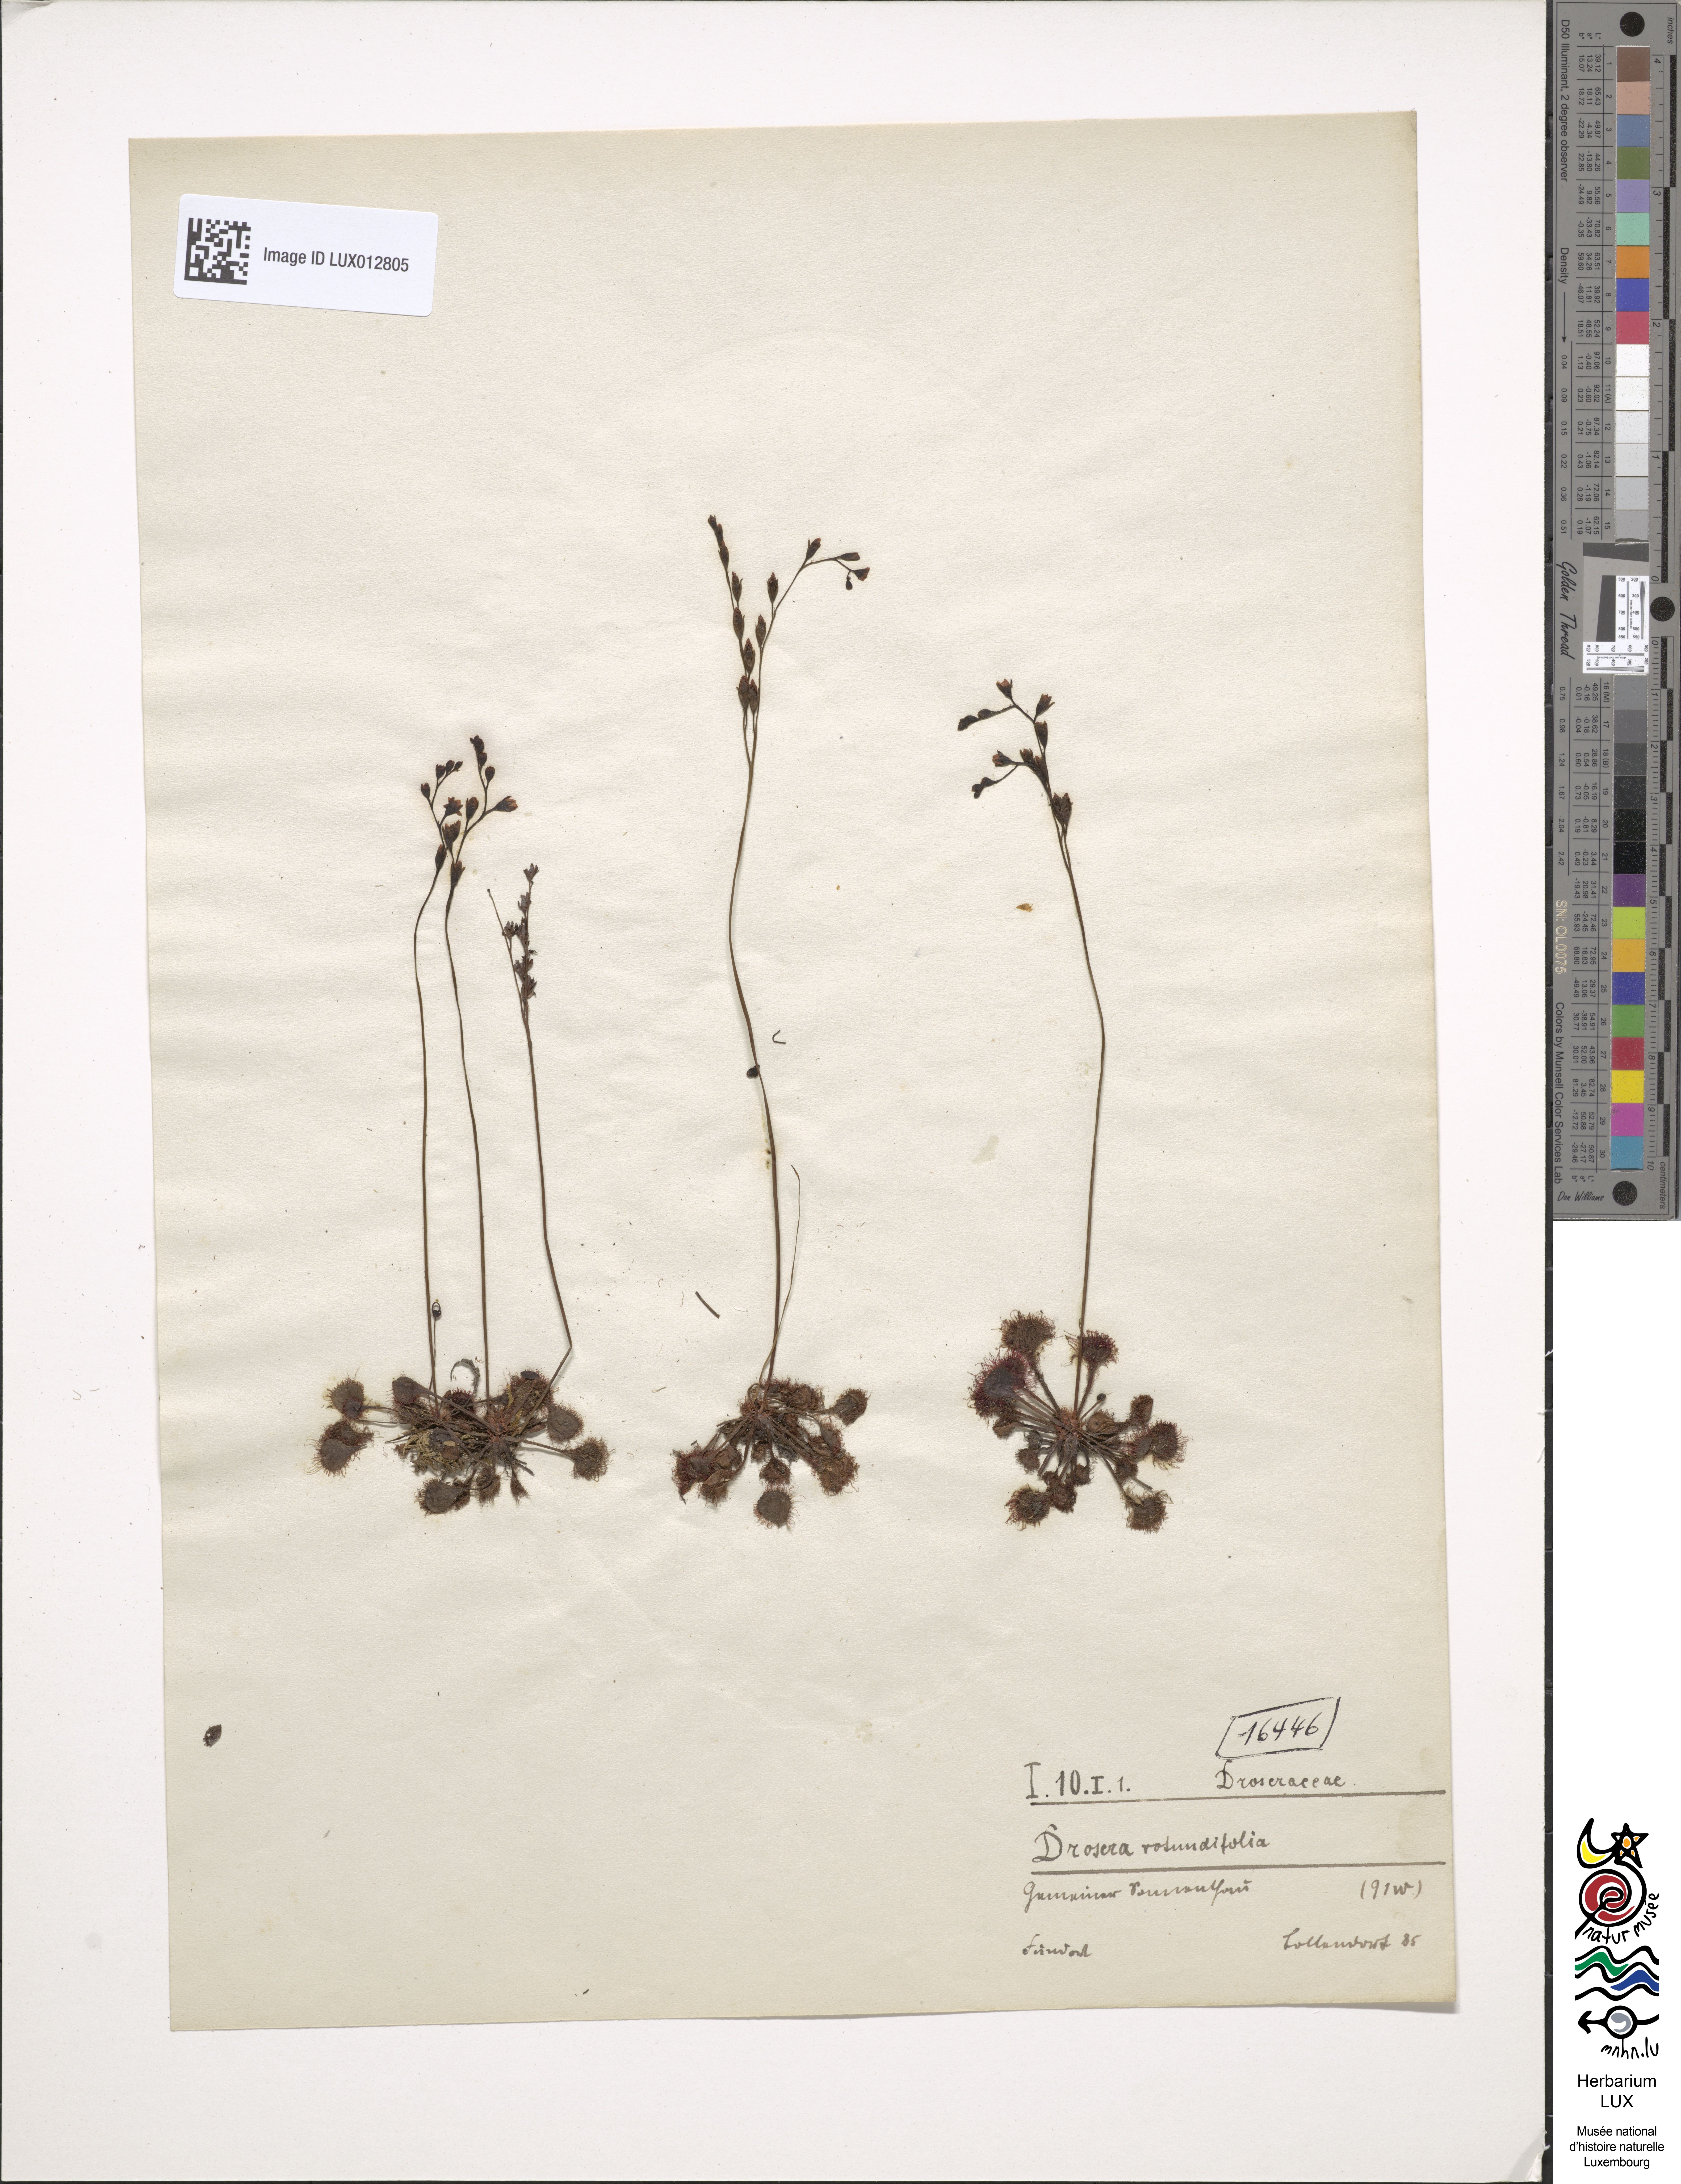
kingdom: Plantae
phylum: Tracheophyta
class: Magnoliopsida
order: Caryophyllales
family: Droseraceae
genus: Drosera
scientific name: Drosera rotundifolia
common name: Round-leaved sundew
